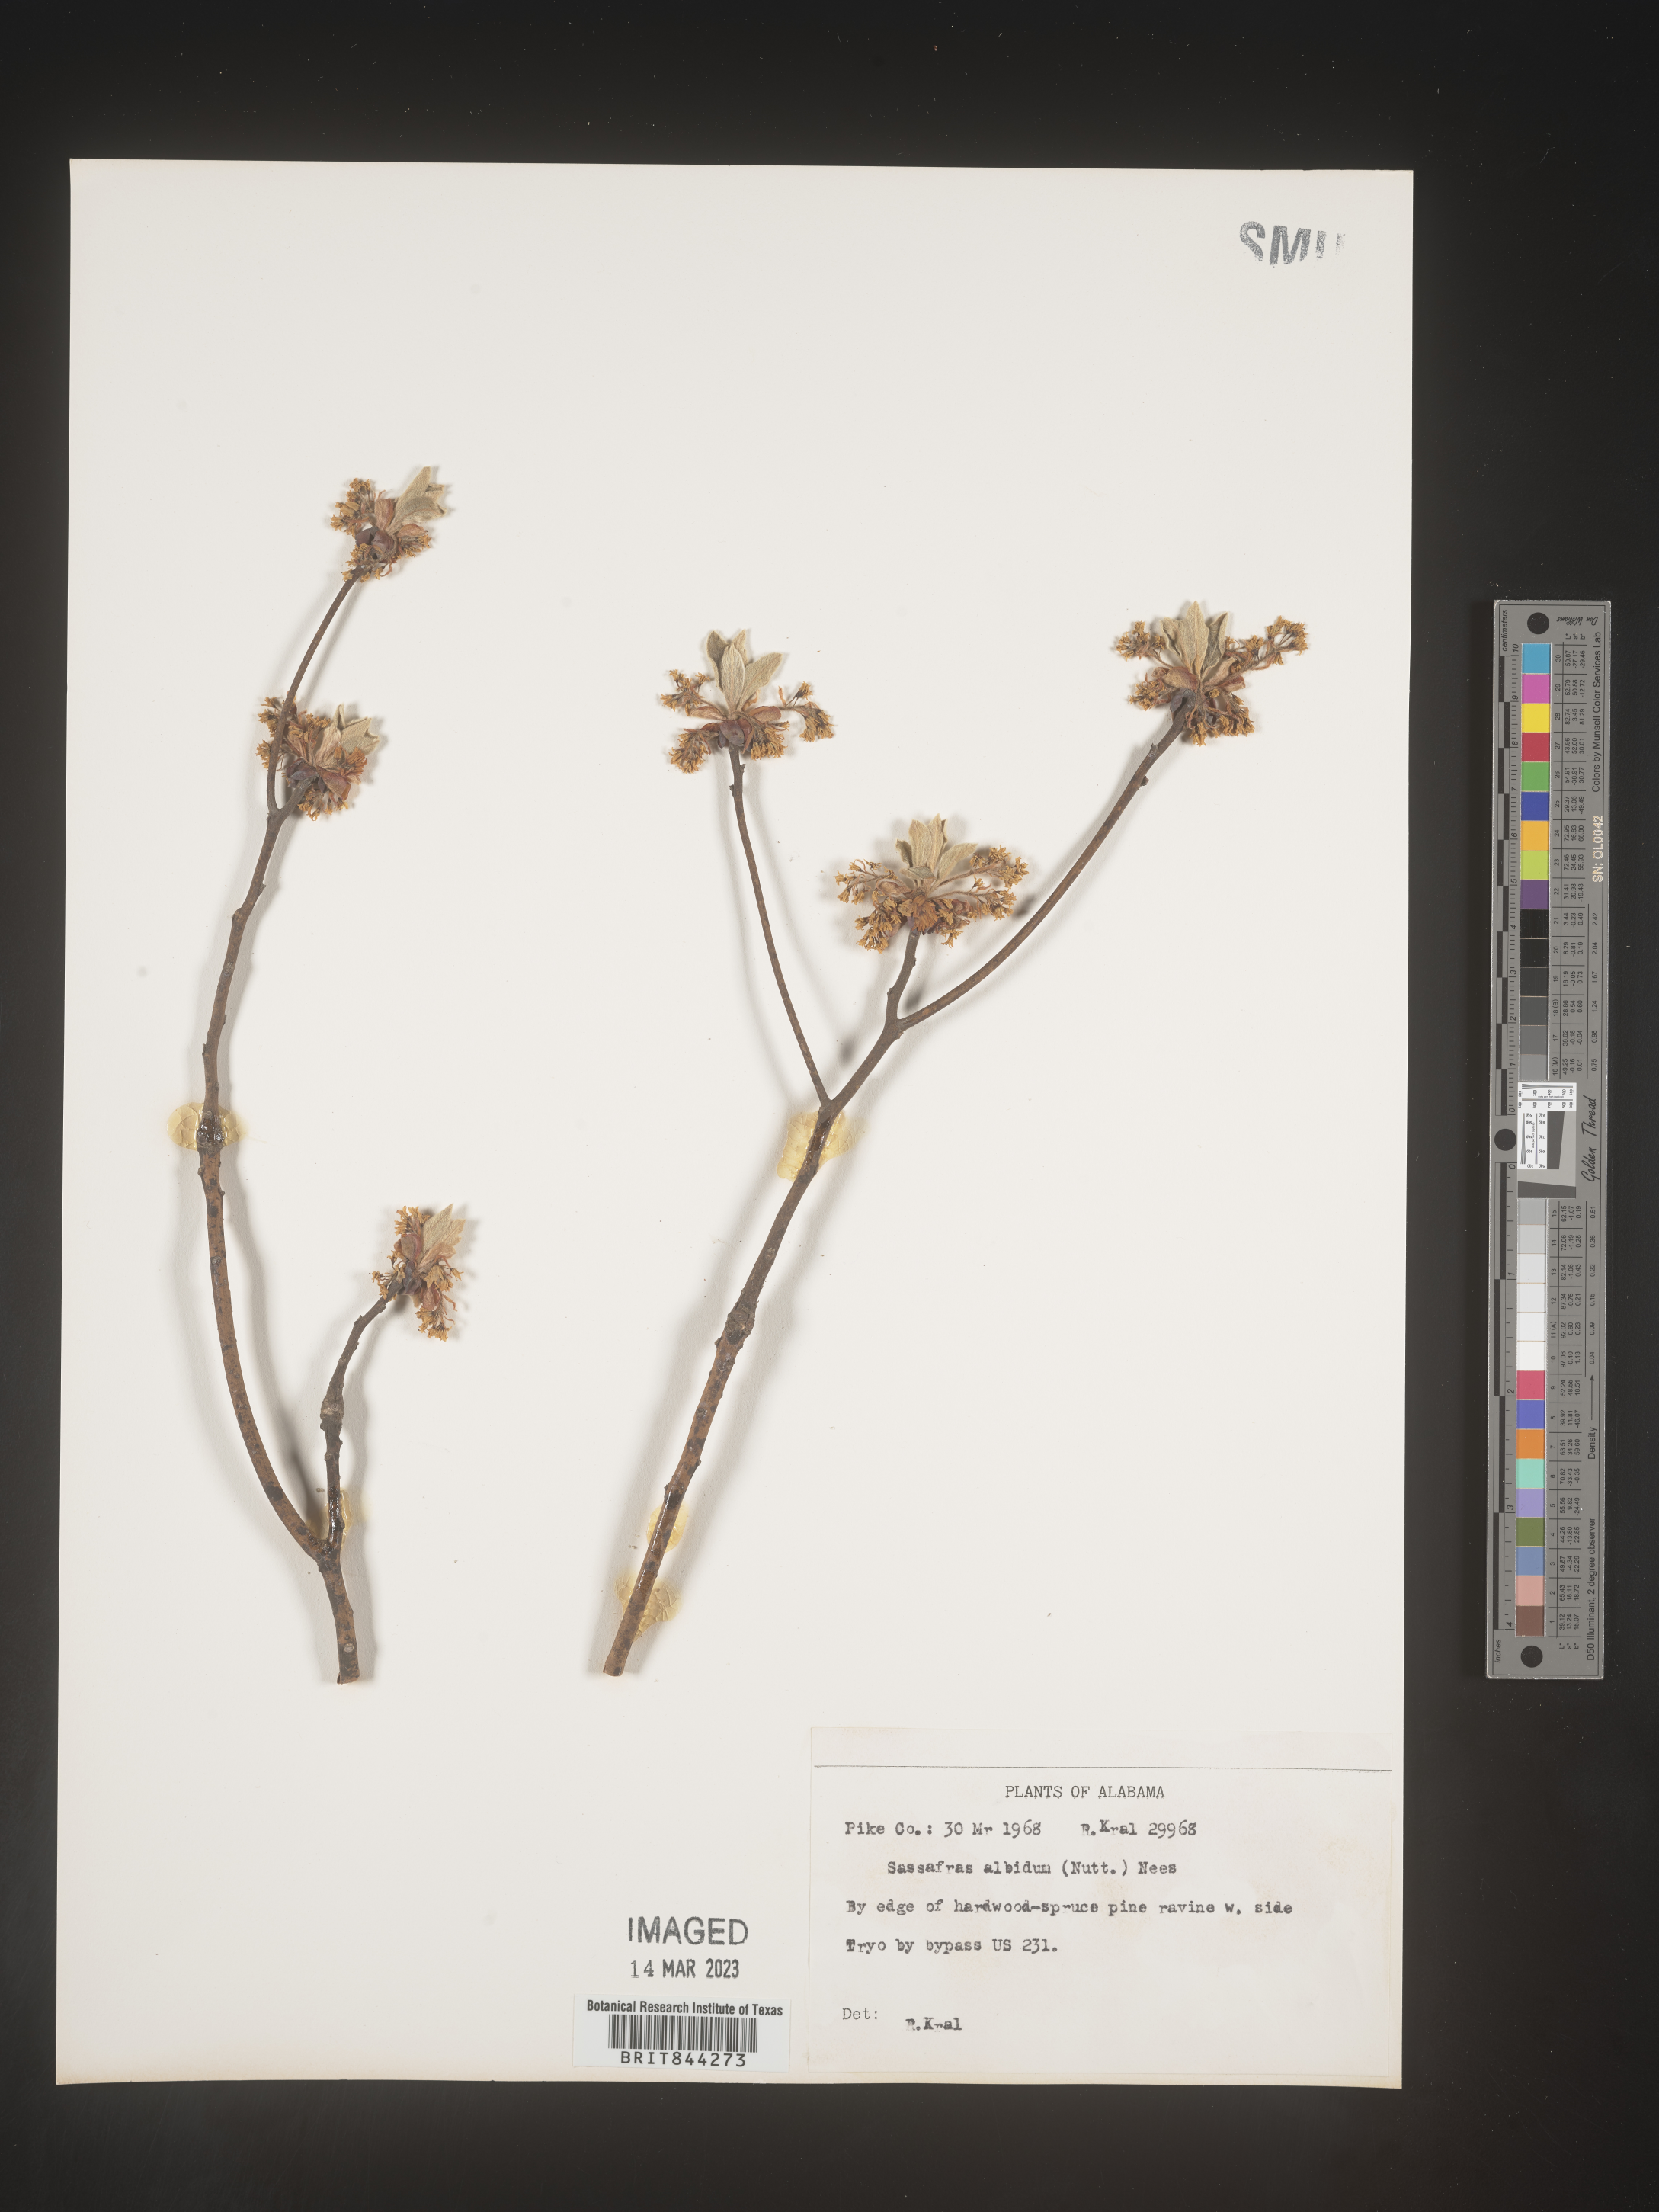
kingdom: Plantae
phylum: Tracheophyta
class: Magnoliopsida
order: Laurales
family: Lauraceae
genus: Sassafras
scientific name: Sassafras albidum
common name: Sassafras
